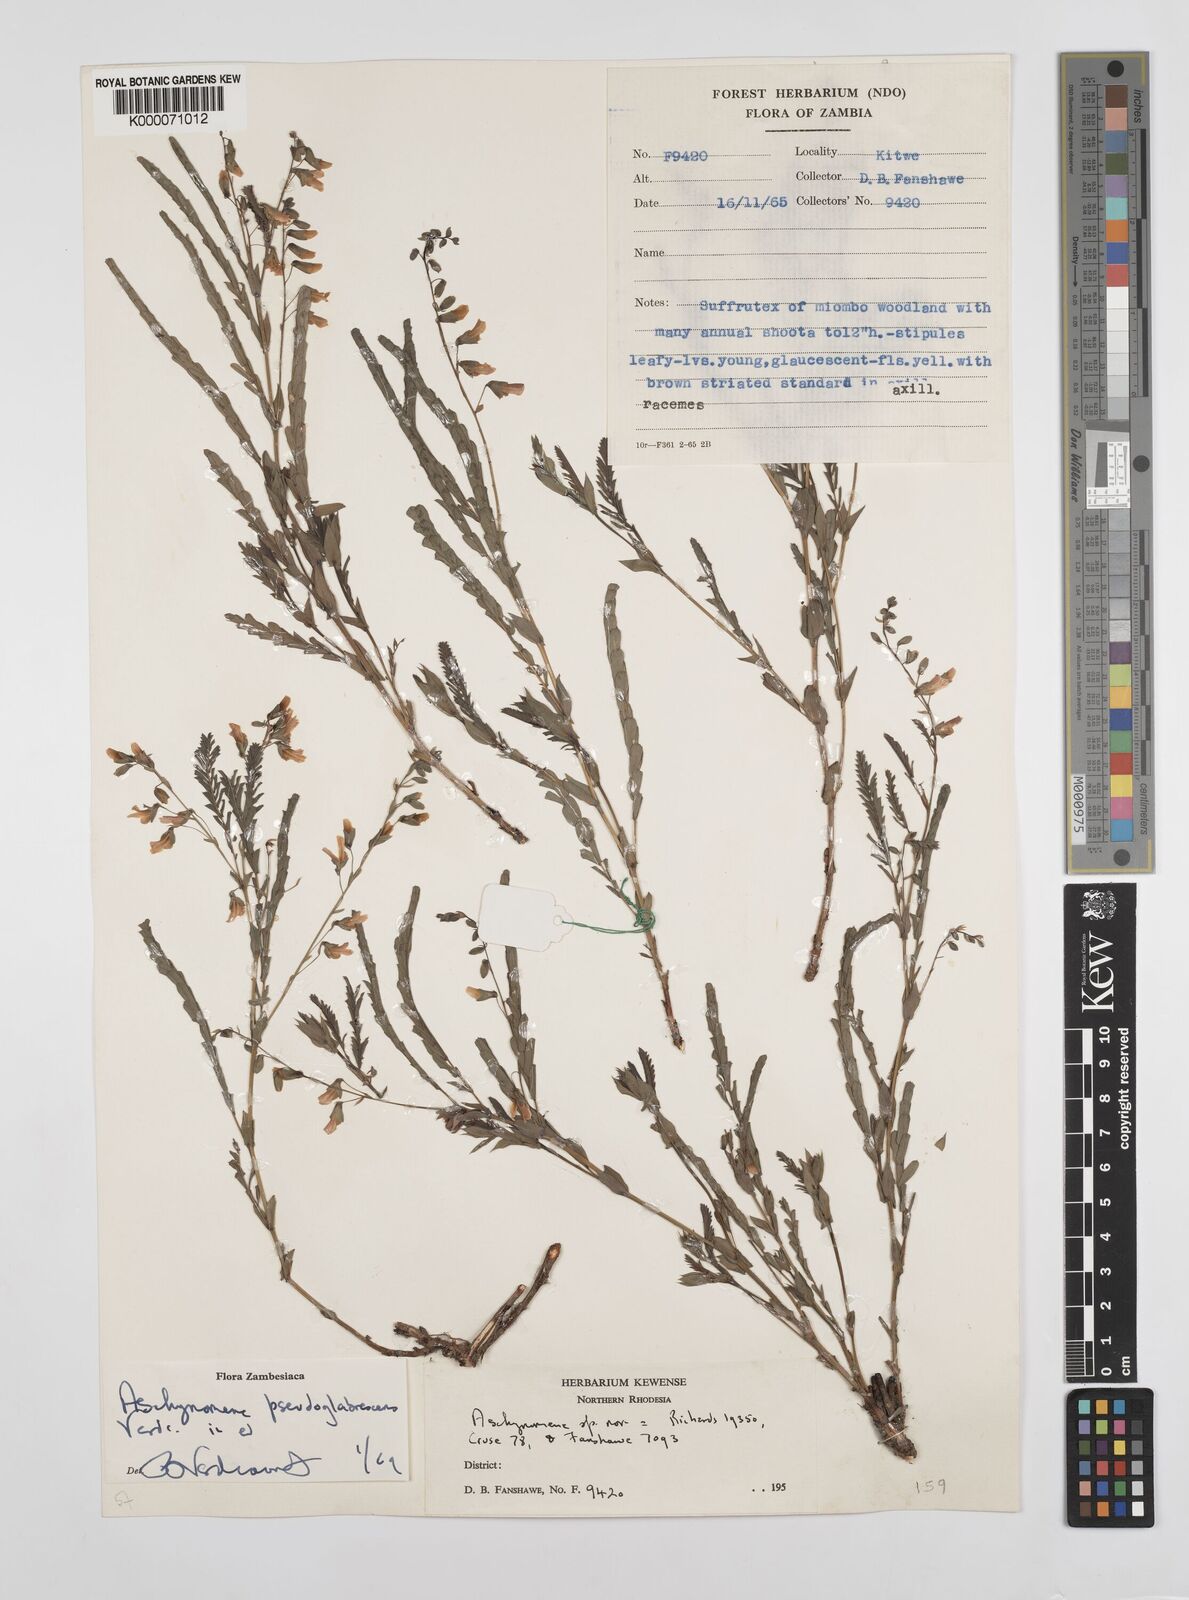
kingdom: Plantae
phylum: Tracheophyta
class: Magnoliopsida
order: Fabales
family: Fabaceae
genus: Aeschynomene
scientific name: Aeschynomene pseudoglabrescens
